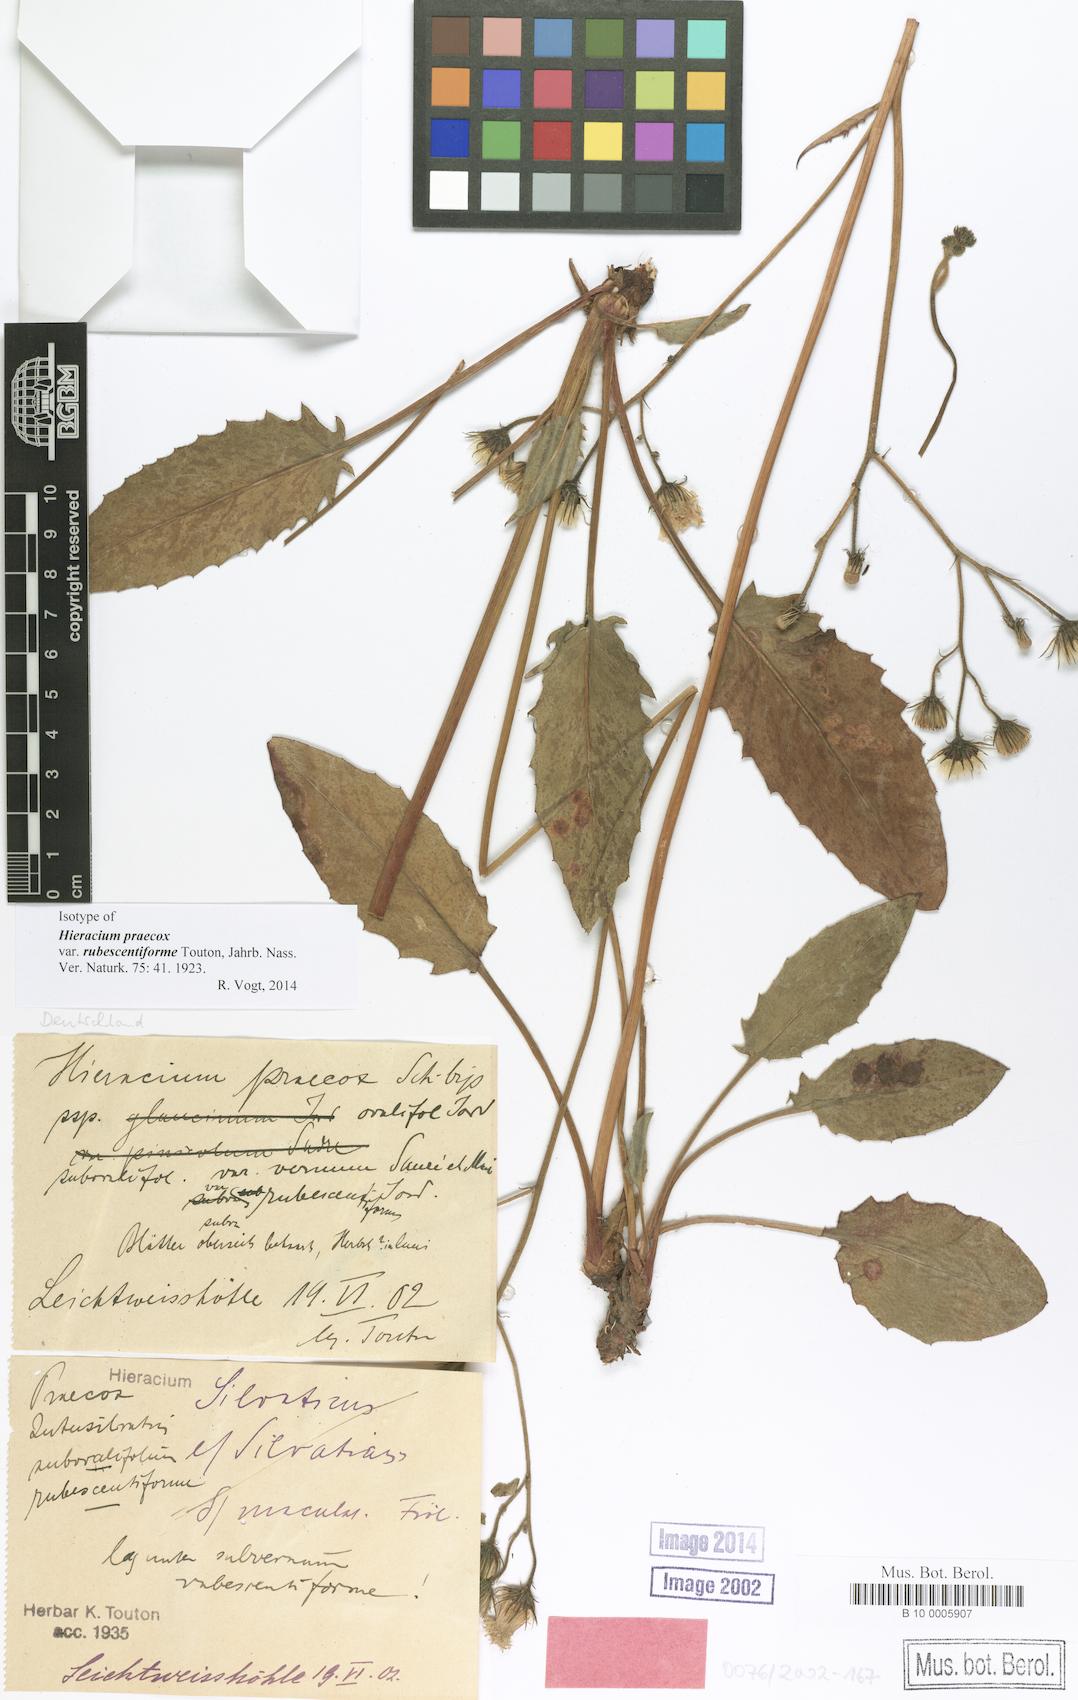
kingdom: Plantae
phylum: Tracheophyta
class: Magnoliopsida
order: Asterales
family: Asteraceae
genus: Hieracium
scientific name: Hieracium praecox
